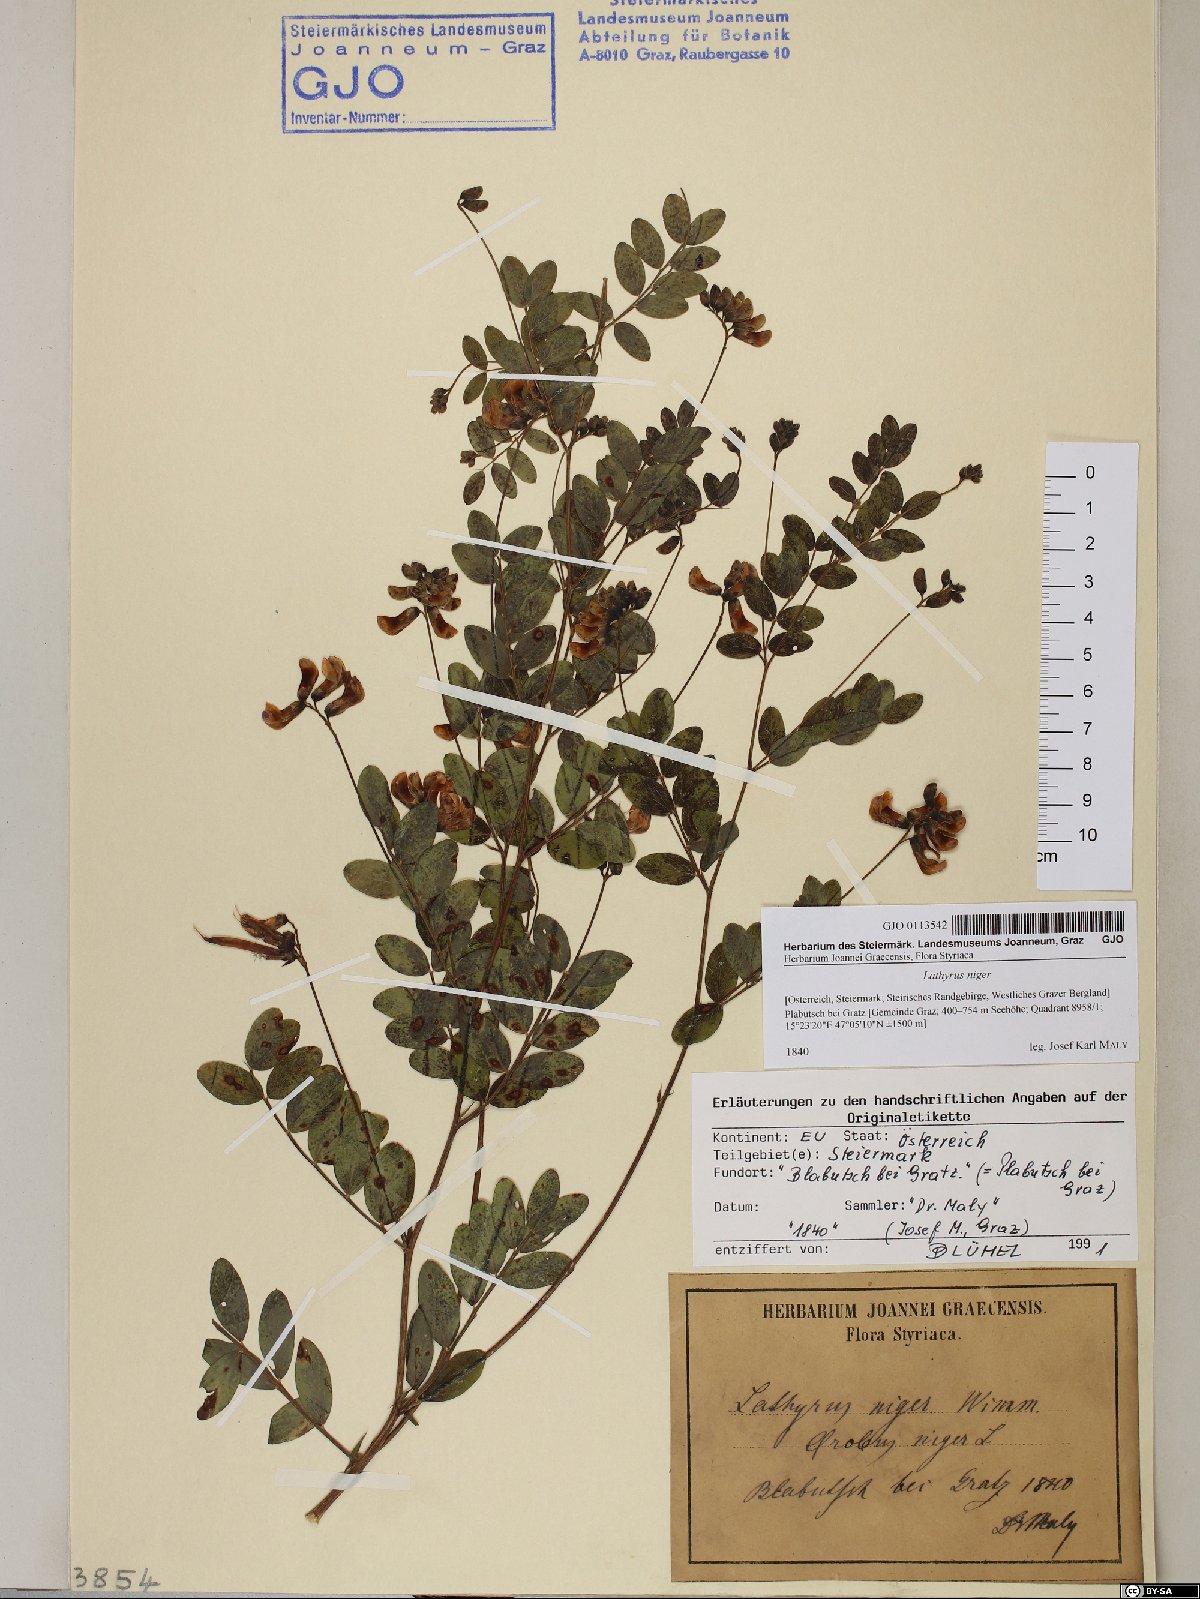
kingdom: Plantae
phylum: Tracheophyta
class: Magnoliopsida
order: Fabales
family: Fabaceae
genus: Lathyrus
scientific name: Lathyrus niger
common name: Black pea
